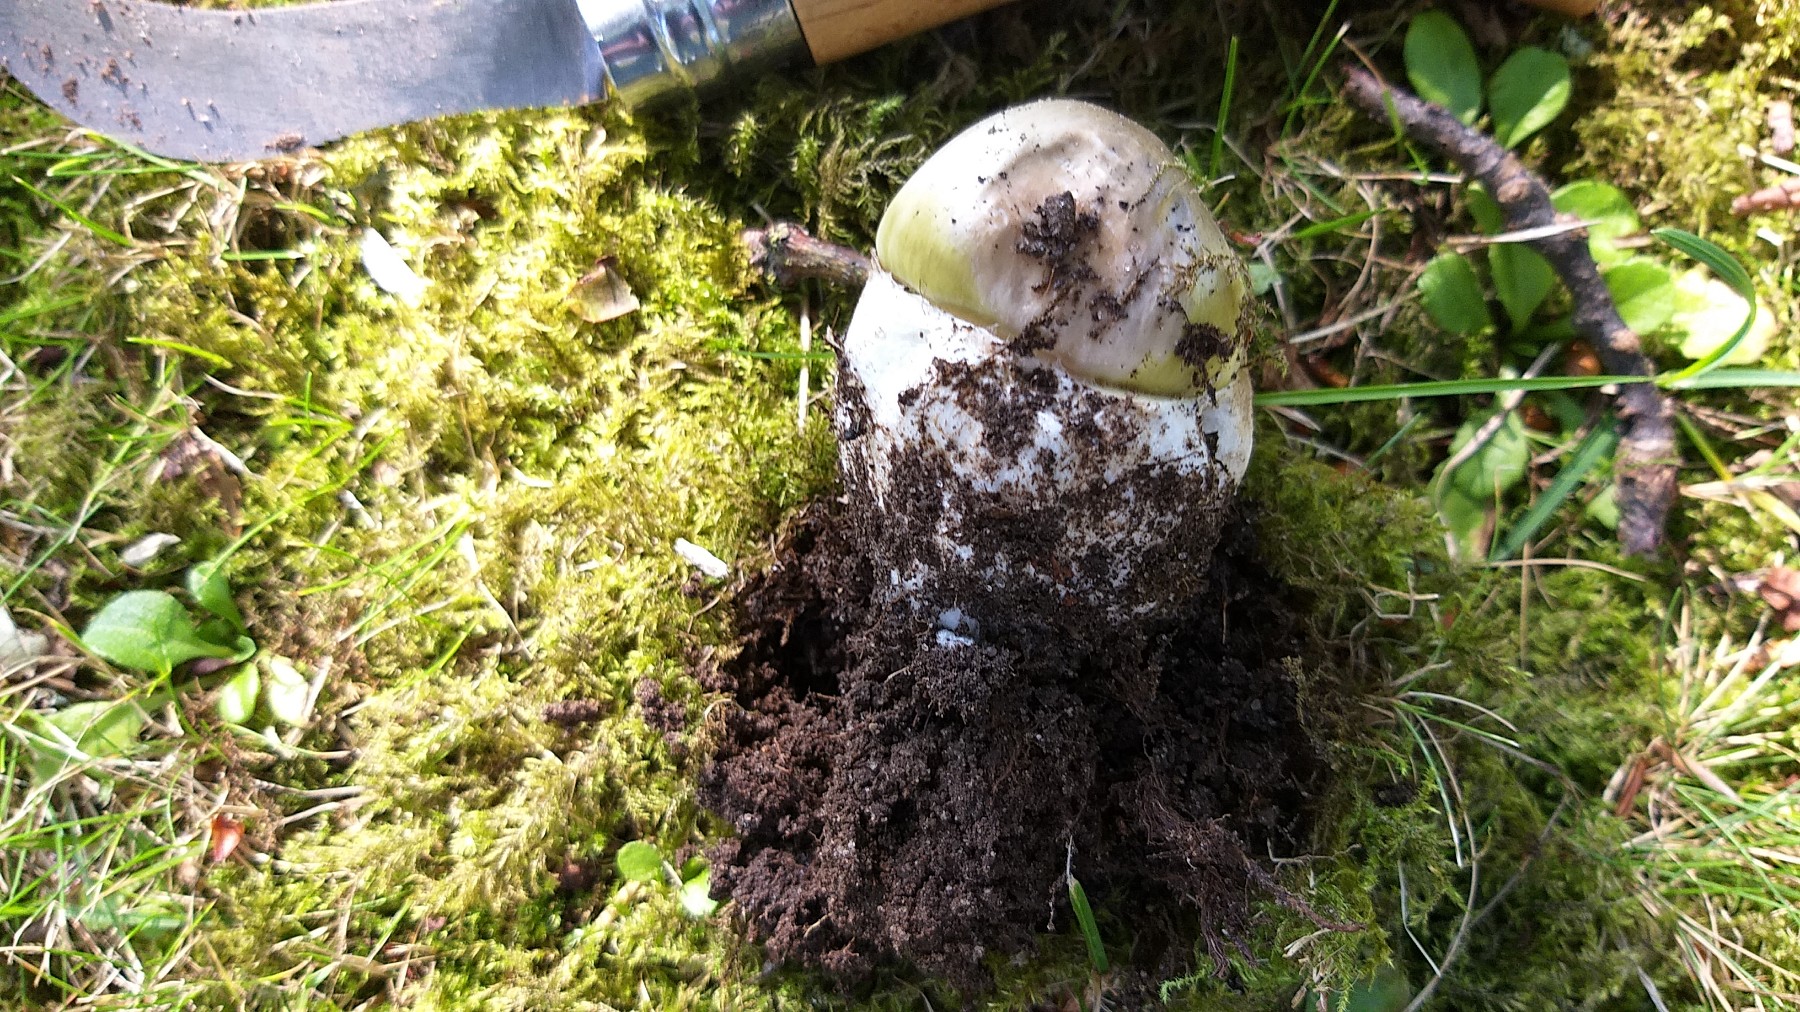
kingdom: Fungi
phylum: Basidiomycota
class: Agaricomycetes
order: Agaricales
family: Amanitaceae
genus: Amanita
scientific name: Amanita phalloides
